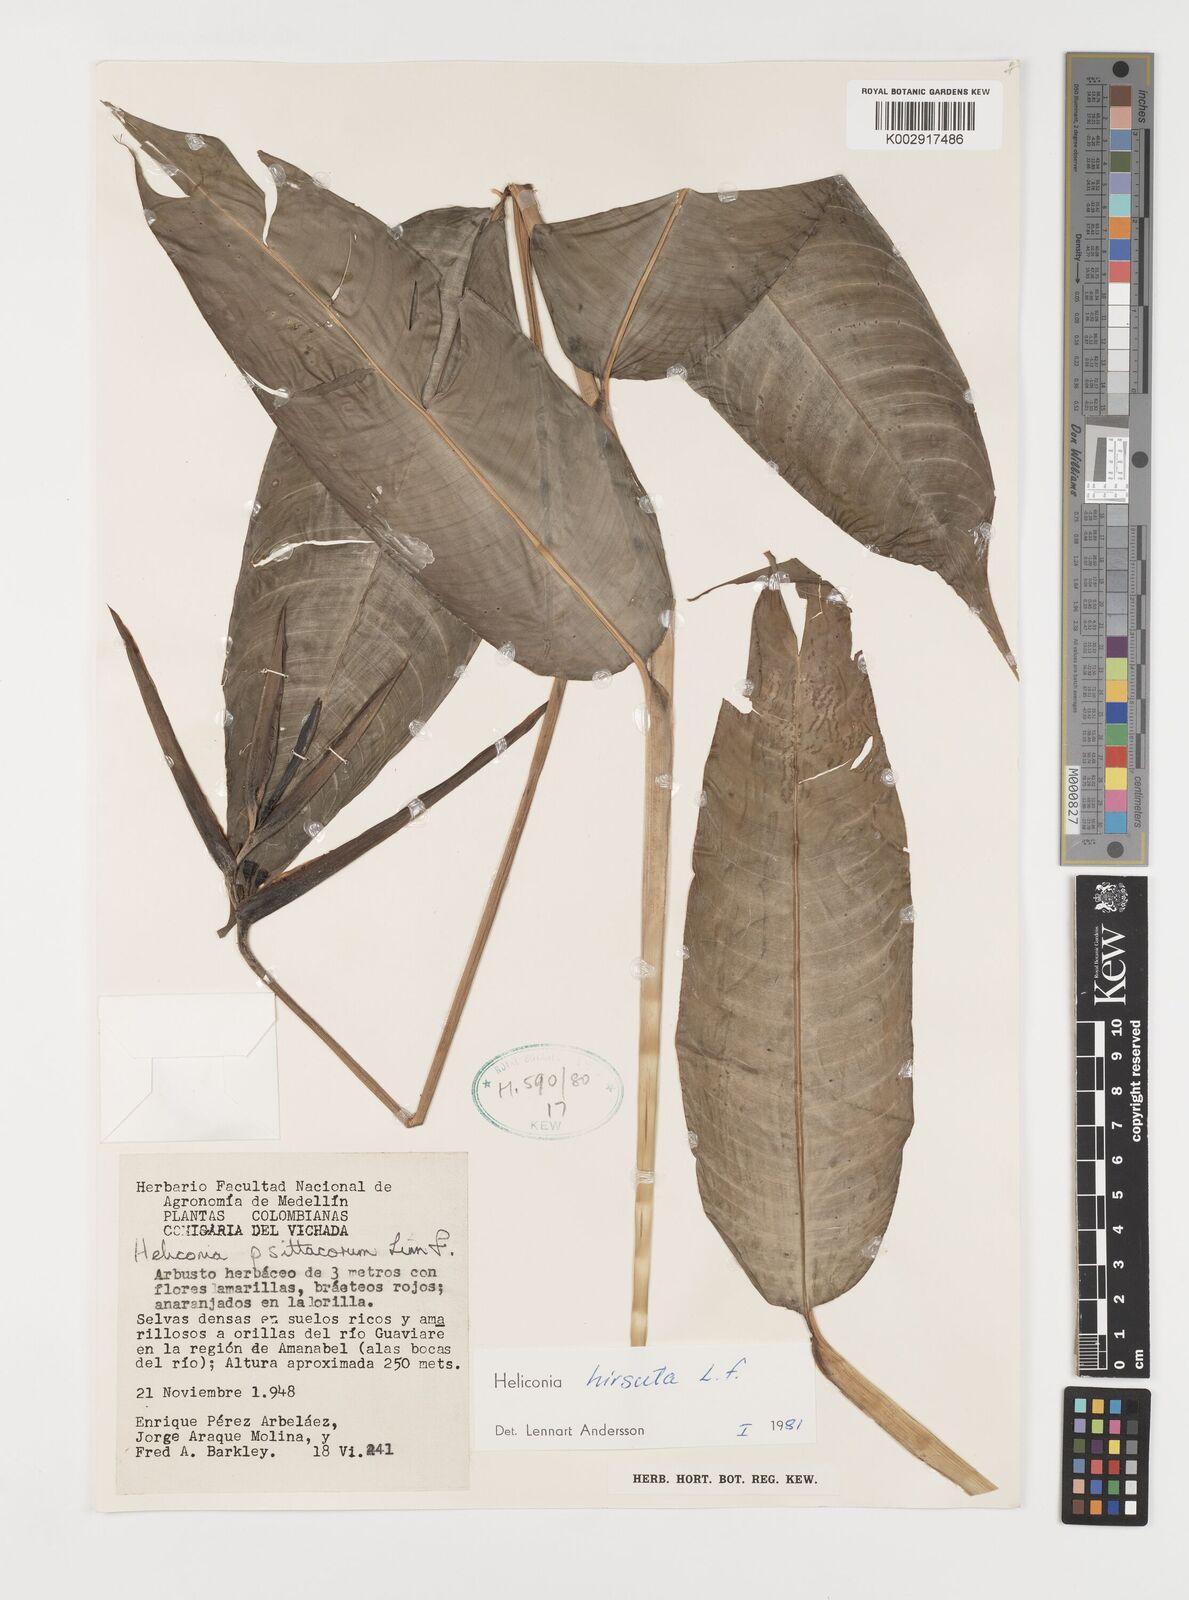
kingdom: Plantae
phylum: Tracheophyta
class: Liliopsida
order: Zingiberales
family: Heliconiaceae
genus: Heliconia
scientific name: Heliconia schiedeana
